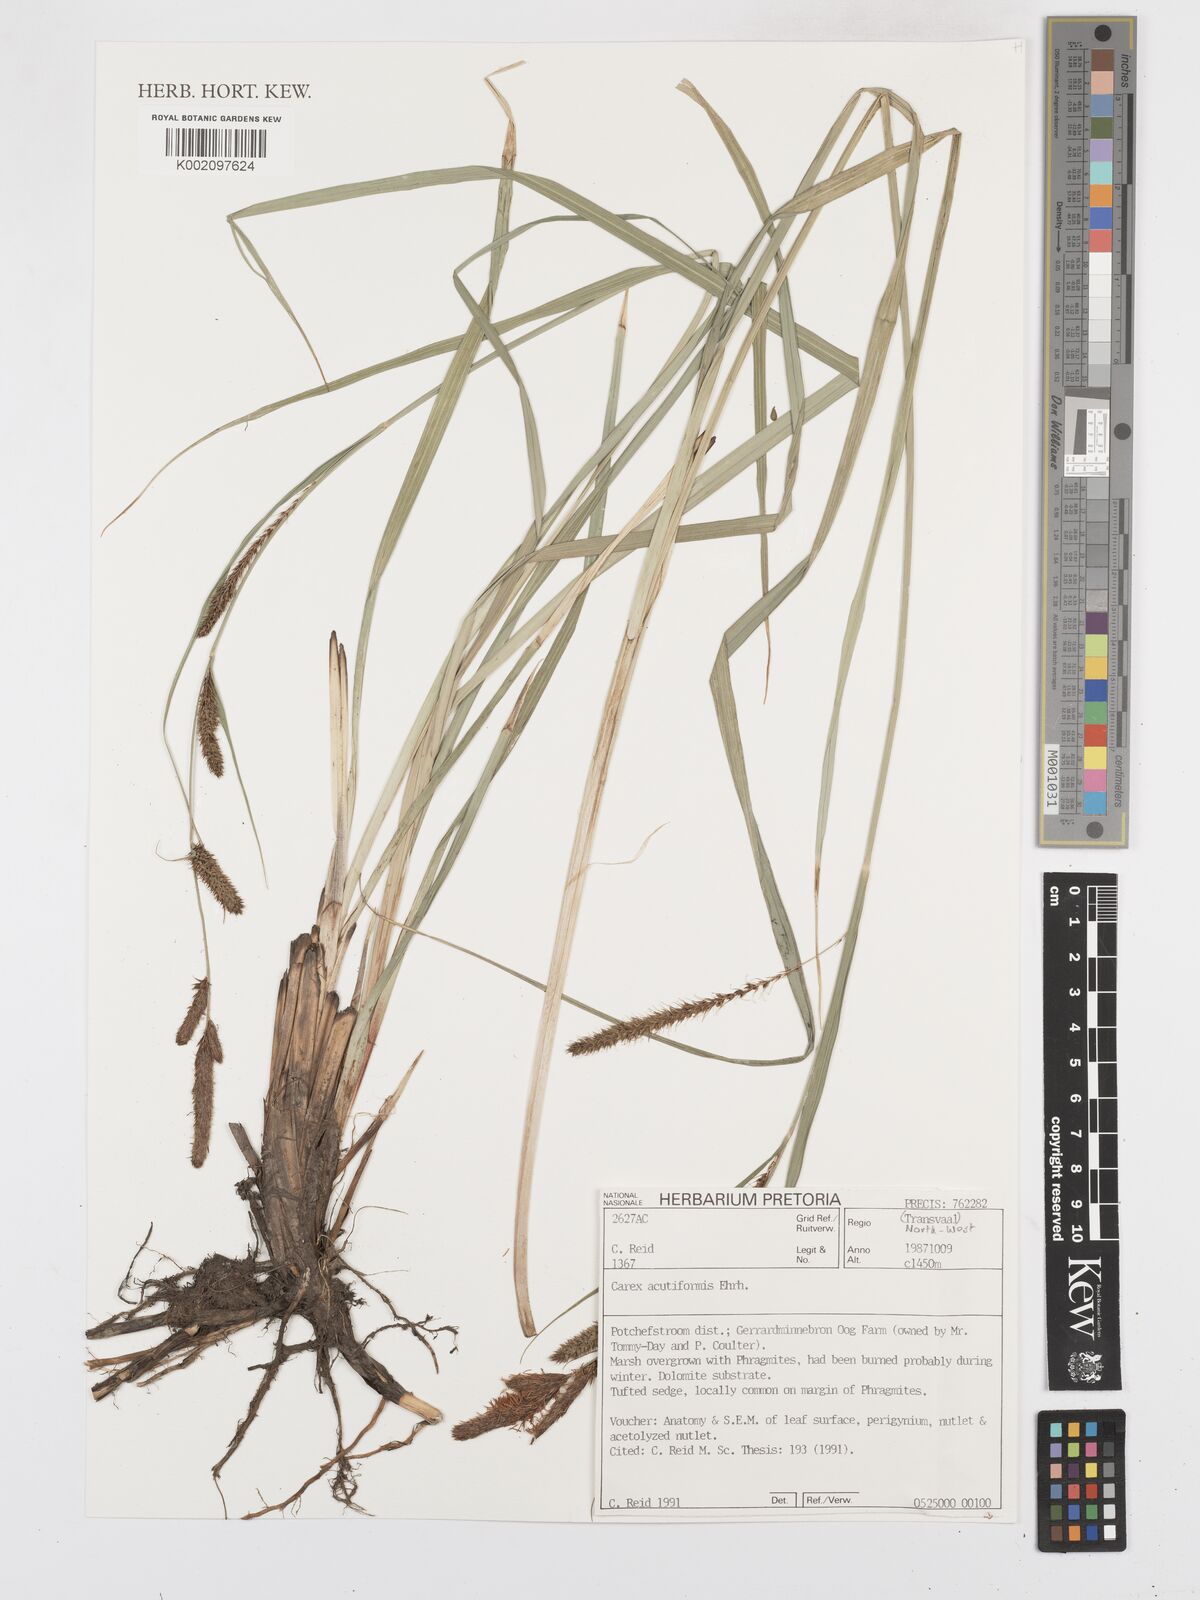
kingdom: Plantae
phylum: Tracheophyta
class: Liliopsida
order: Poales
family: Cyperaceae
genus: Carex
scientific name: Carex acutiformis
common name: Lesser pond-sedge
